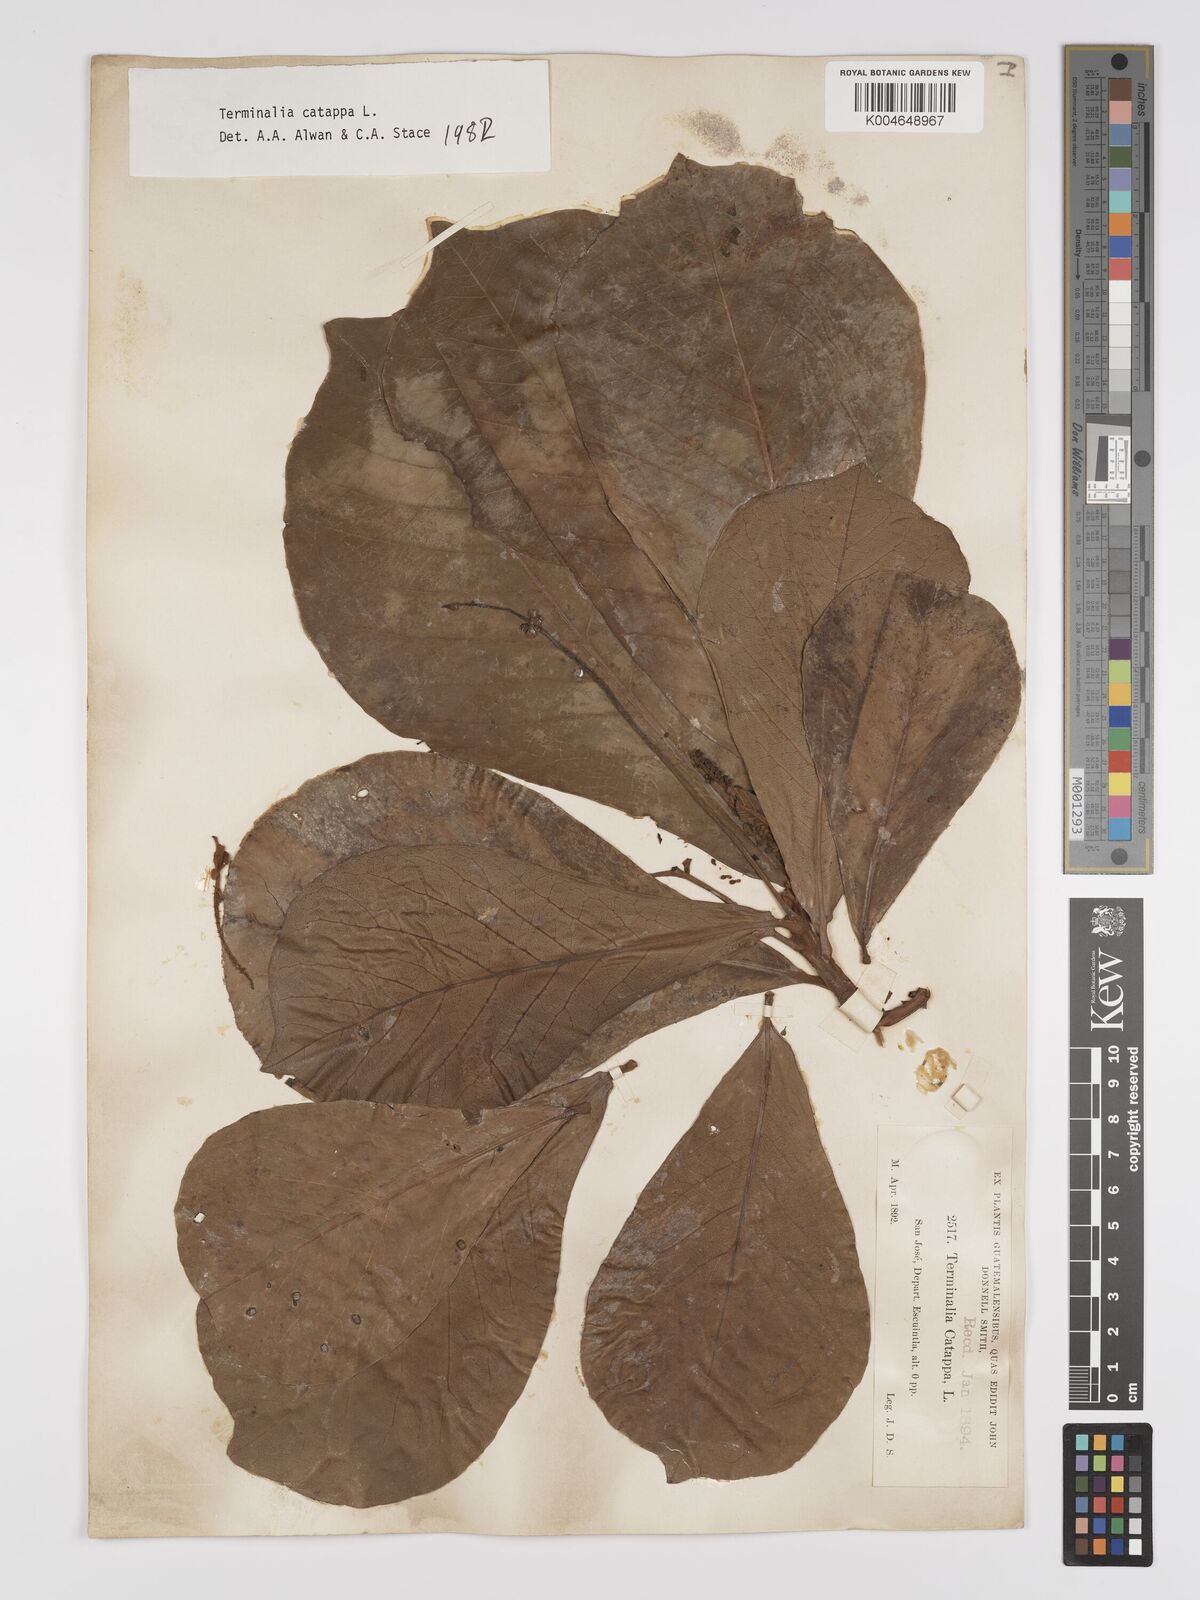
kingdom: Plantae
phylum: Tracheophyta
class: Magnoliopsida
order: Myrtales
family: Combretaceae
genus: Terminalia
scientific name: Terminalia catappa
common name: Tropical almond
